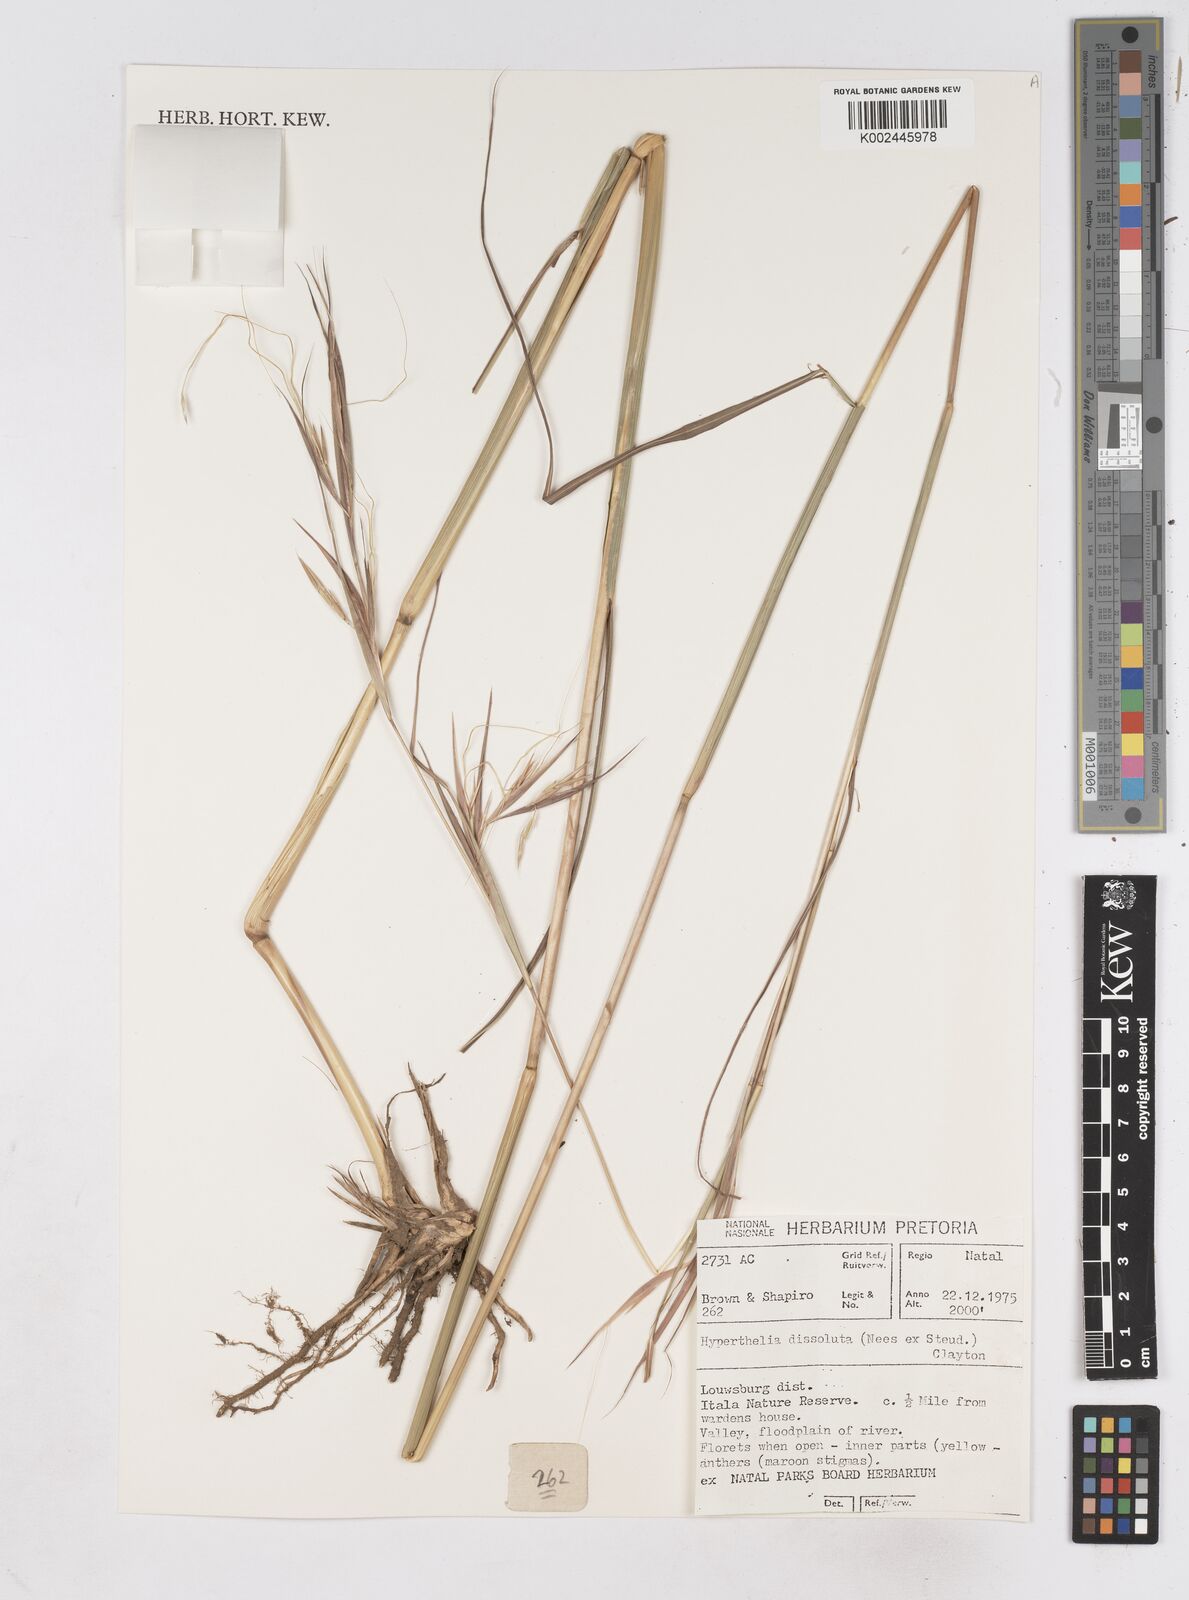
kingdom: Plantae
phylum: Tracheophyta
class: Liliopsida
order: Poales
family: Poaceae
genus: Hyperthelia
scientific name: Hyperthelia dissoluta
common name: Yellow thatching grass
